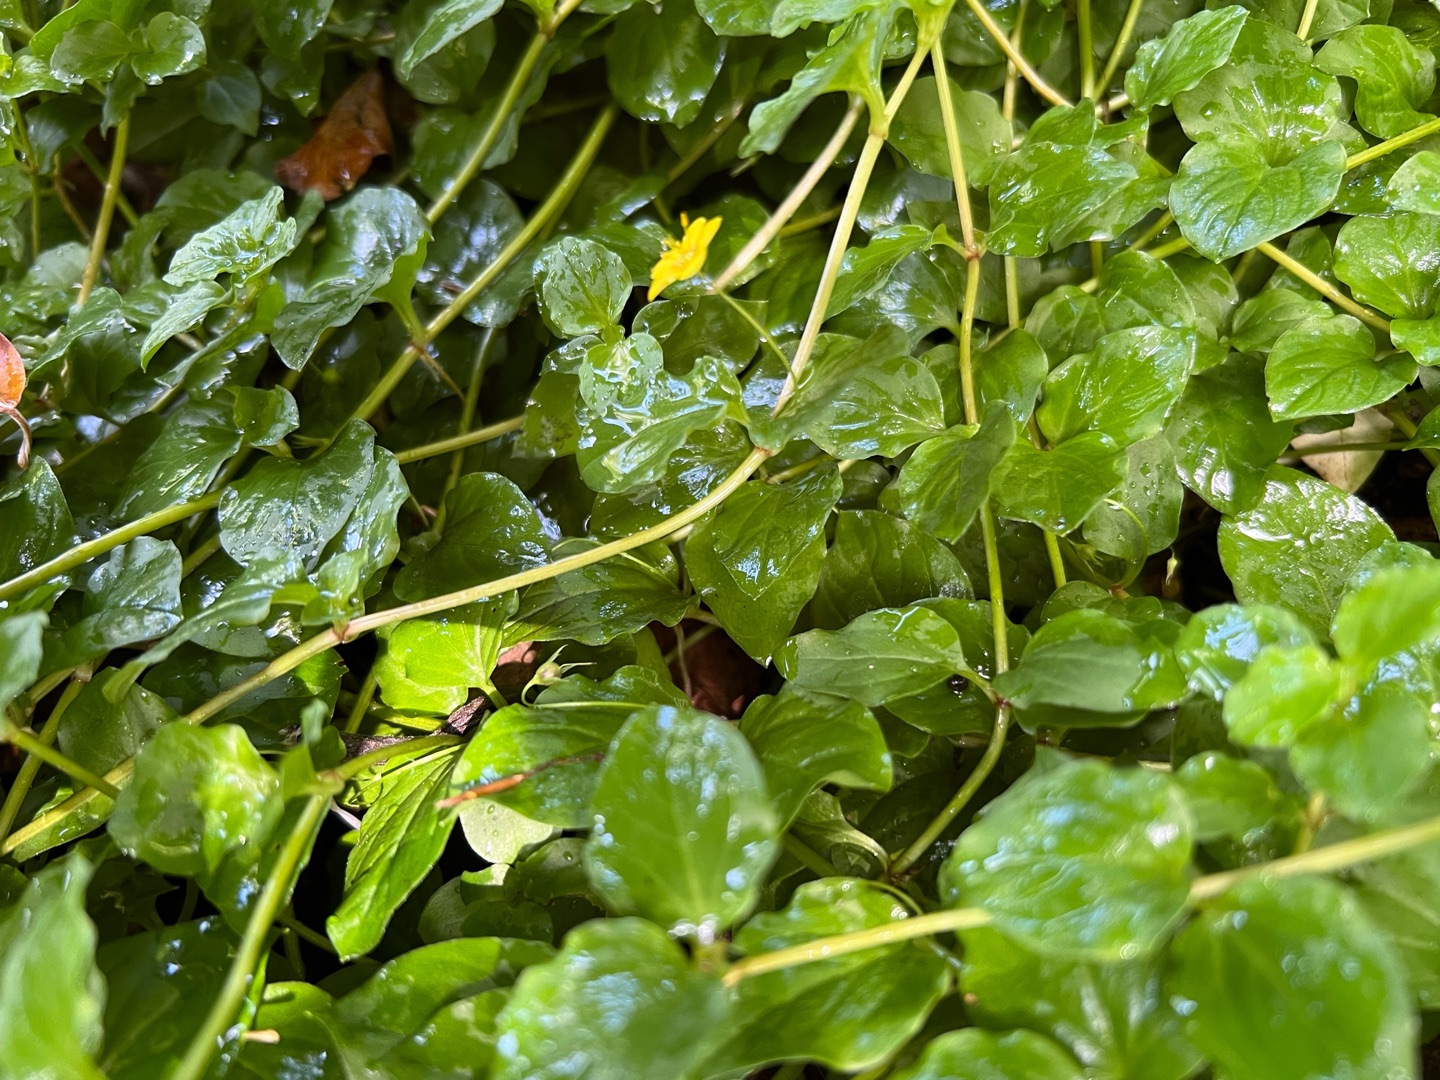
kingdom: Plantae
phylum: Tracheophyta
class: Magnoliopsida
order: Ericales
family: Primulaceae
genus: Lysimachia
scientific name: Lysimachia nemorum
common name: Lund-fredløs
